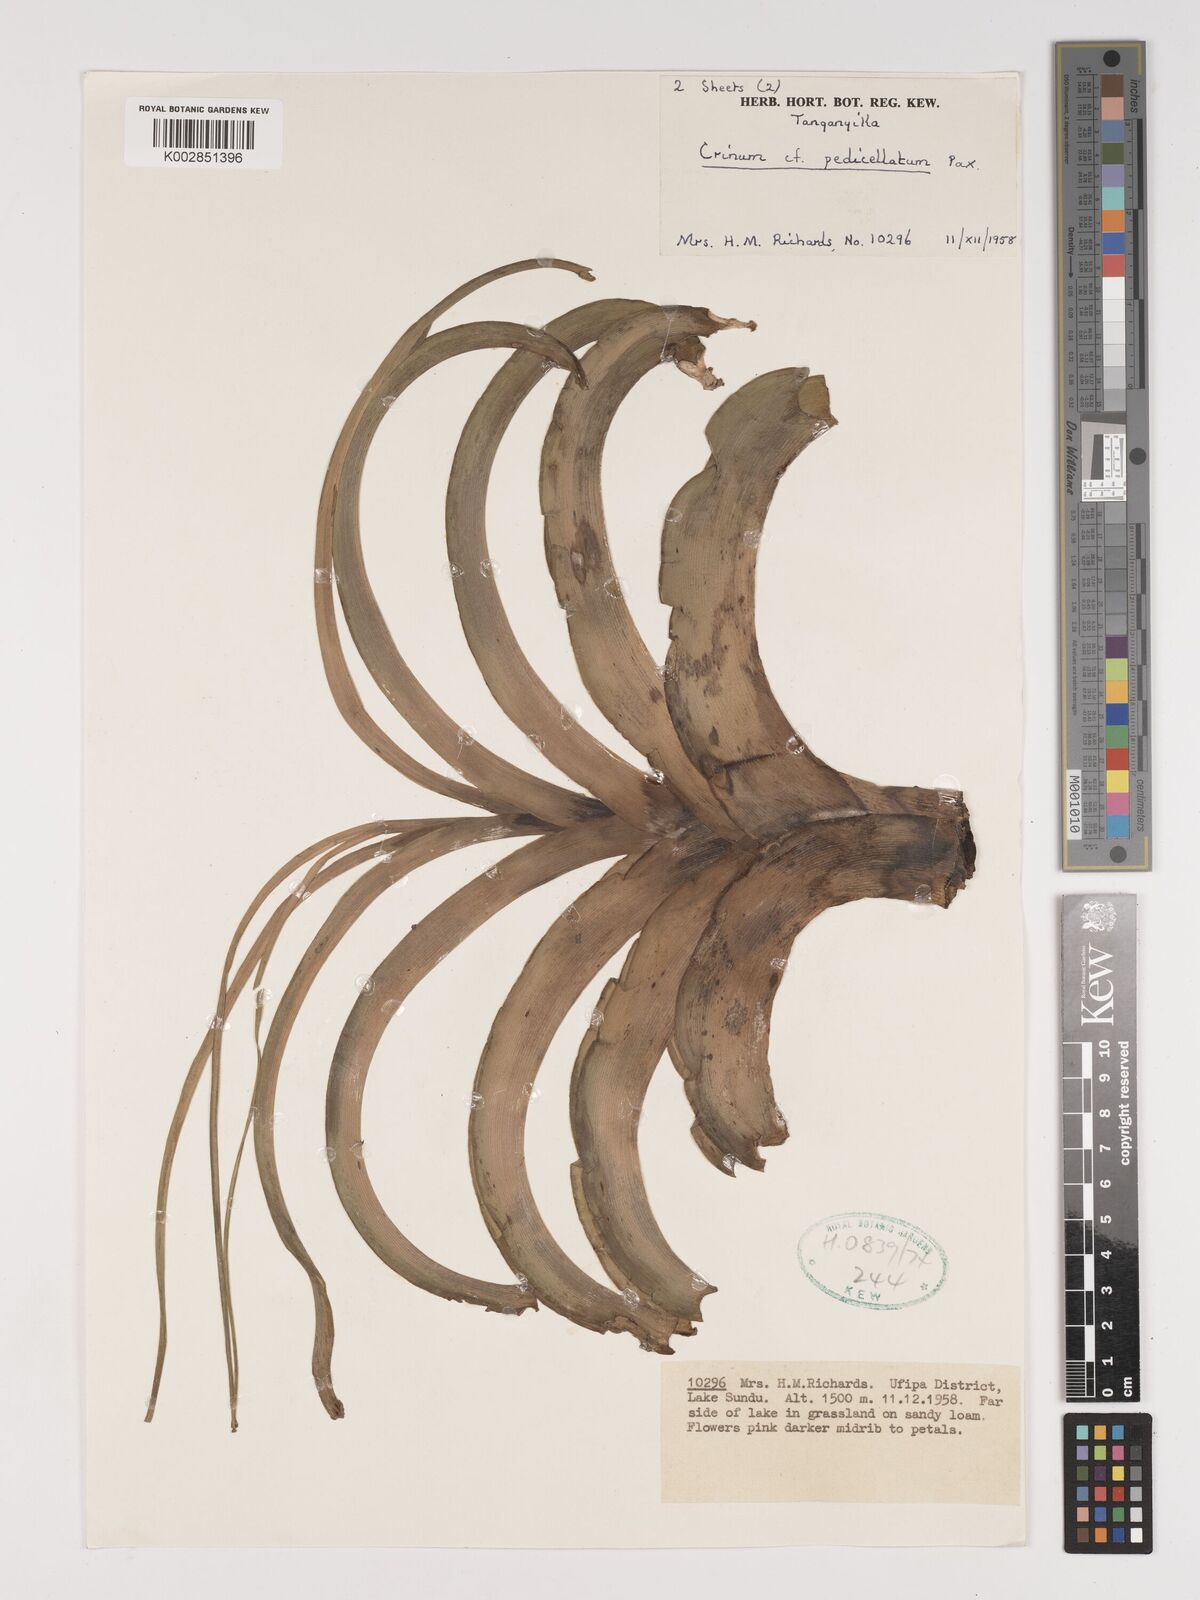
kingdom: Plantae
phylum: Tracheophyta
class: Liliopsida
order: Asparagales
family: Amaryllidaceae
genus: Crinum
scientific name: Crinum paludosum
